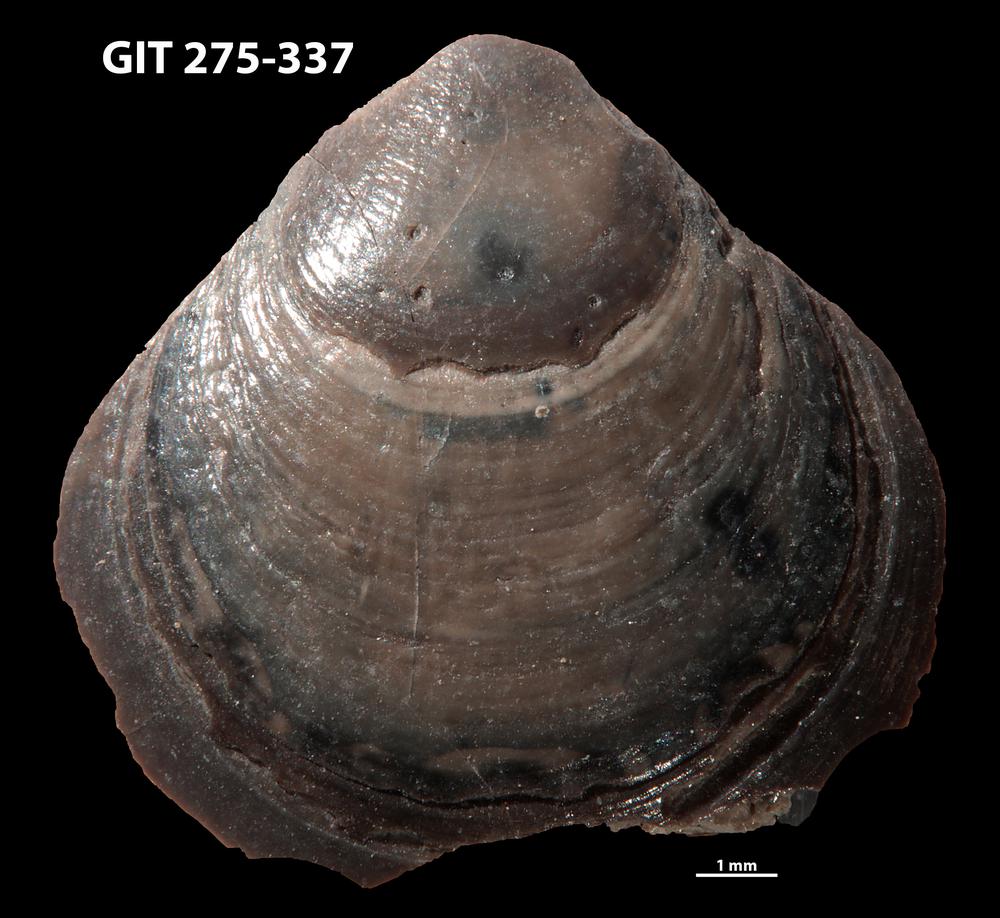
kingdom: Animalia
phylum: Brachiopoda
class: Lingulata
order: Lingulida
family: Obolidae
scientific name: Obolidae
